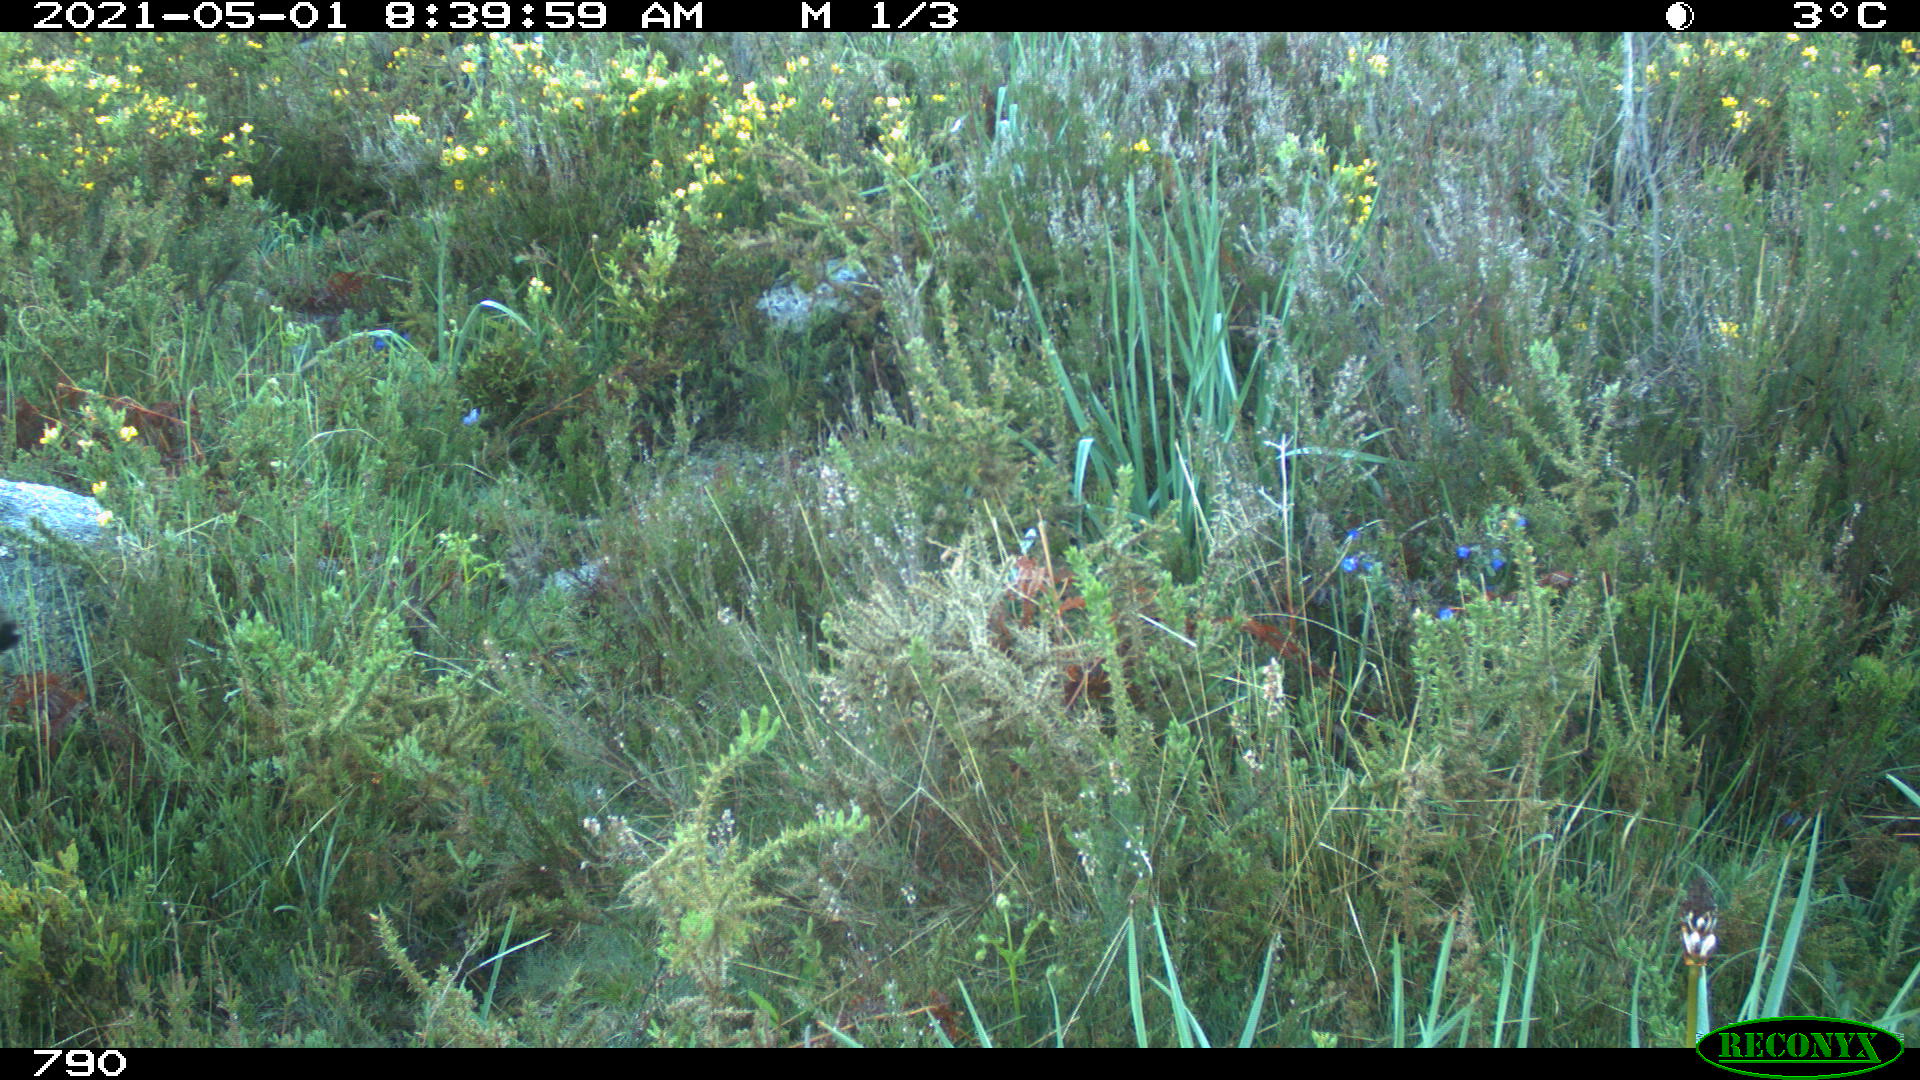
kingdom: Animalia
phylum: Chordata
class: Mammalia
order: Artiodactyla
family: Cervidae
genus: Capreolus
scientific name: Capreolus capreolus
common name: Western roe deer
